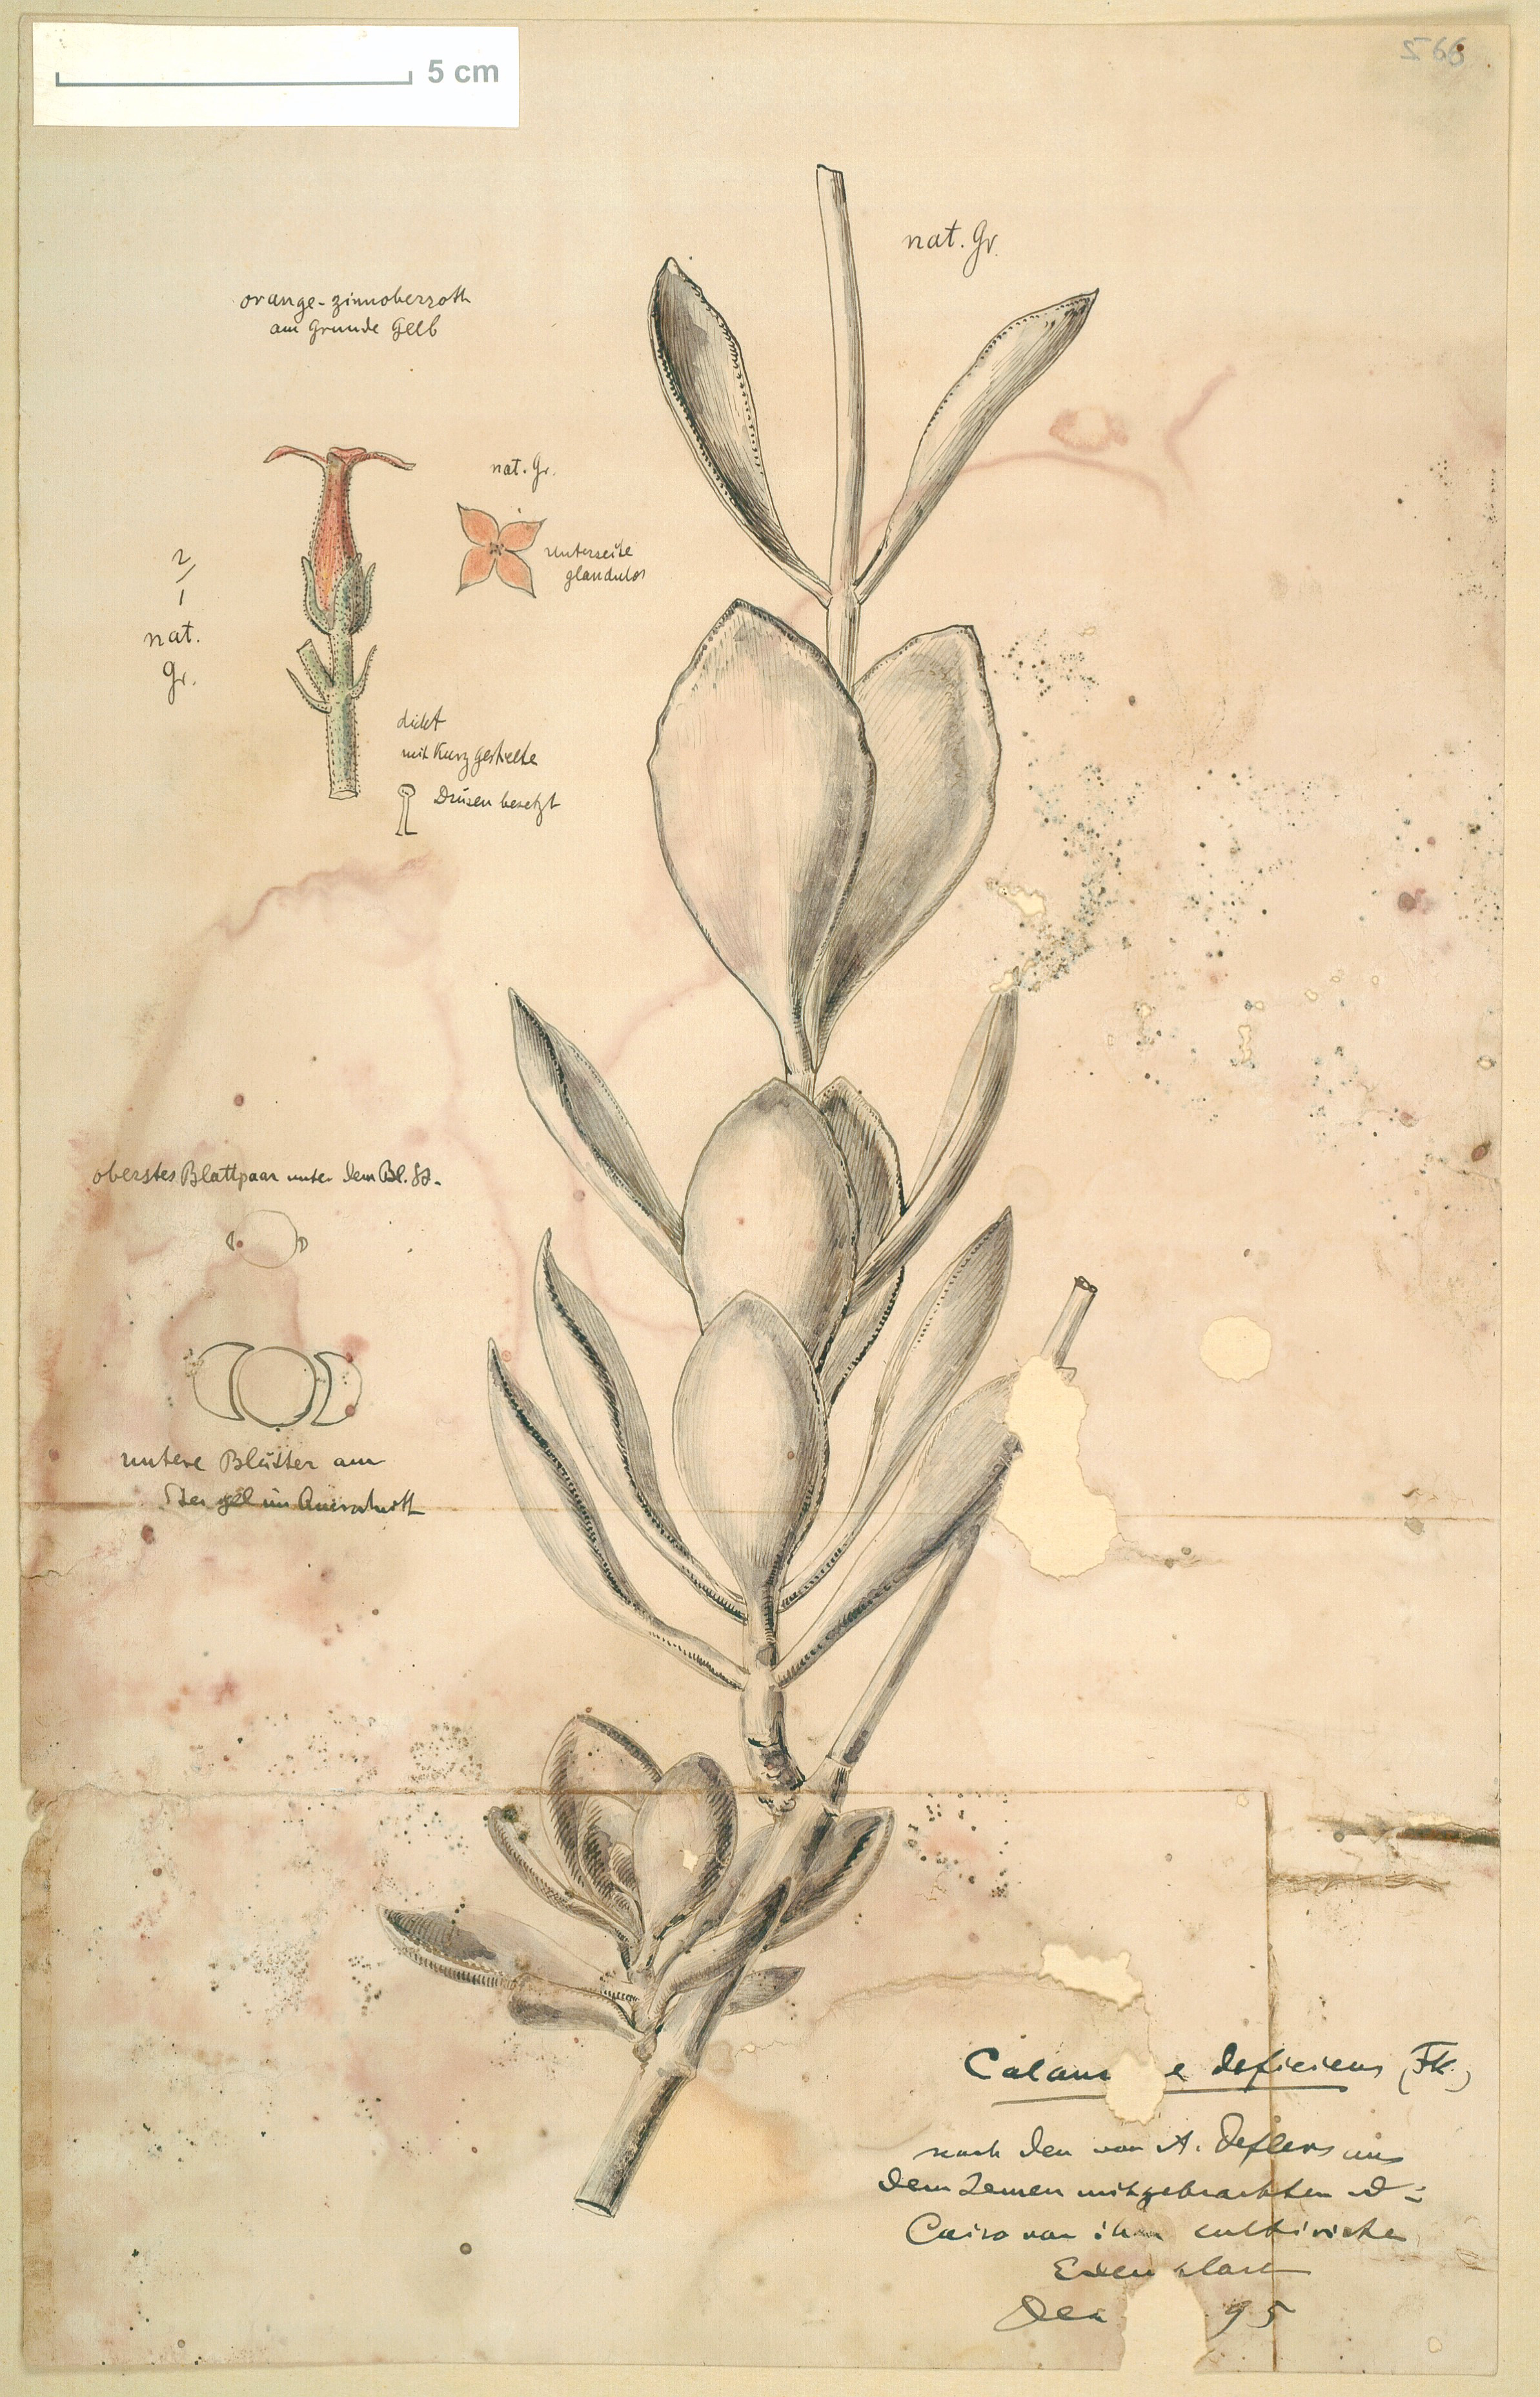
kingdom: Plantae
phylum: Tracheophyta
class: Magnoliopsida
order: Saxifragales
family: Crassulaceae
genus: Kalanchoe
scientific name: Kalanchoe deficiens
